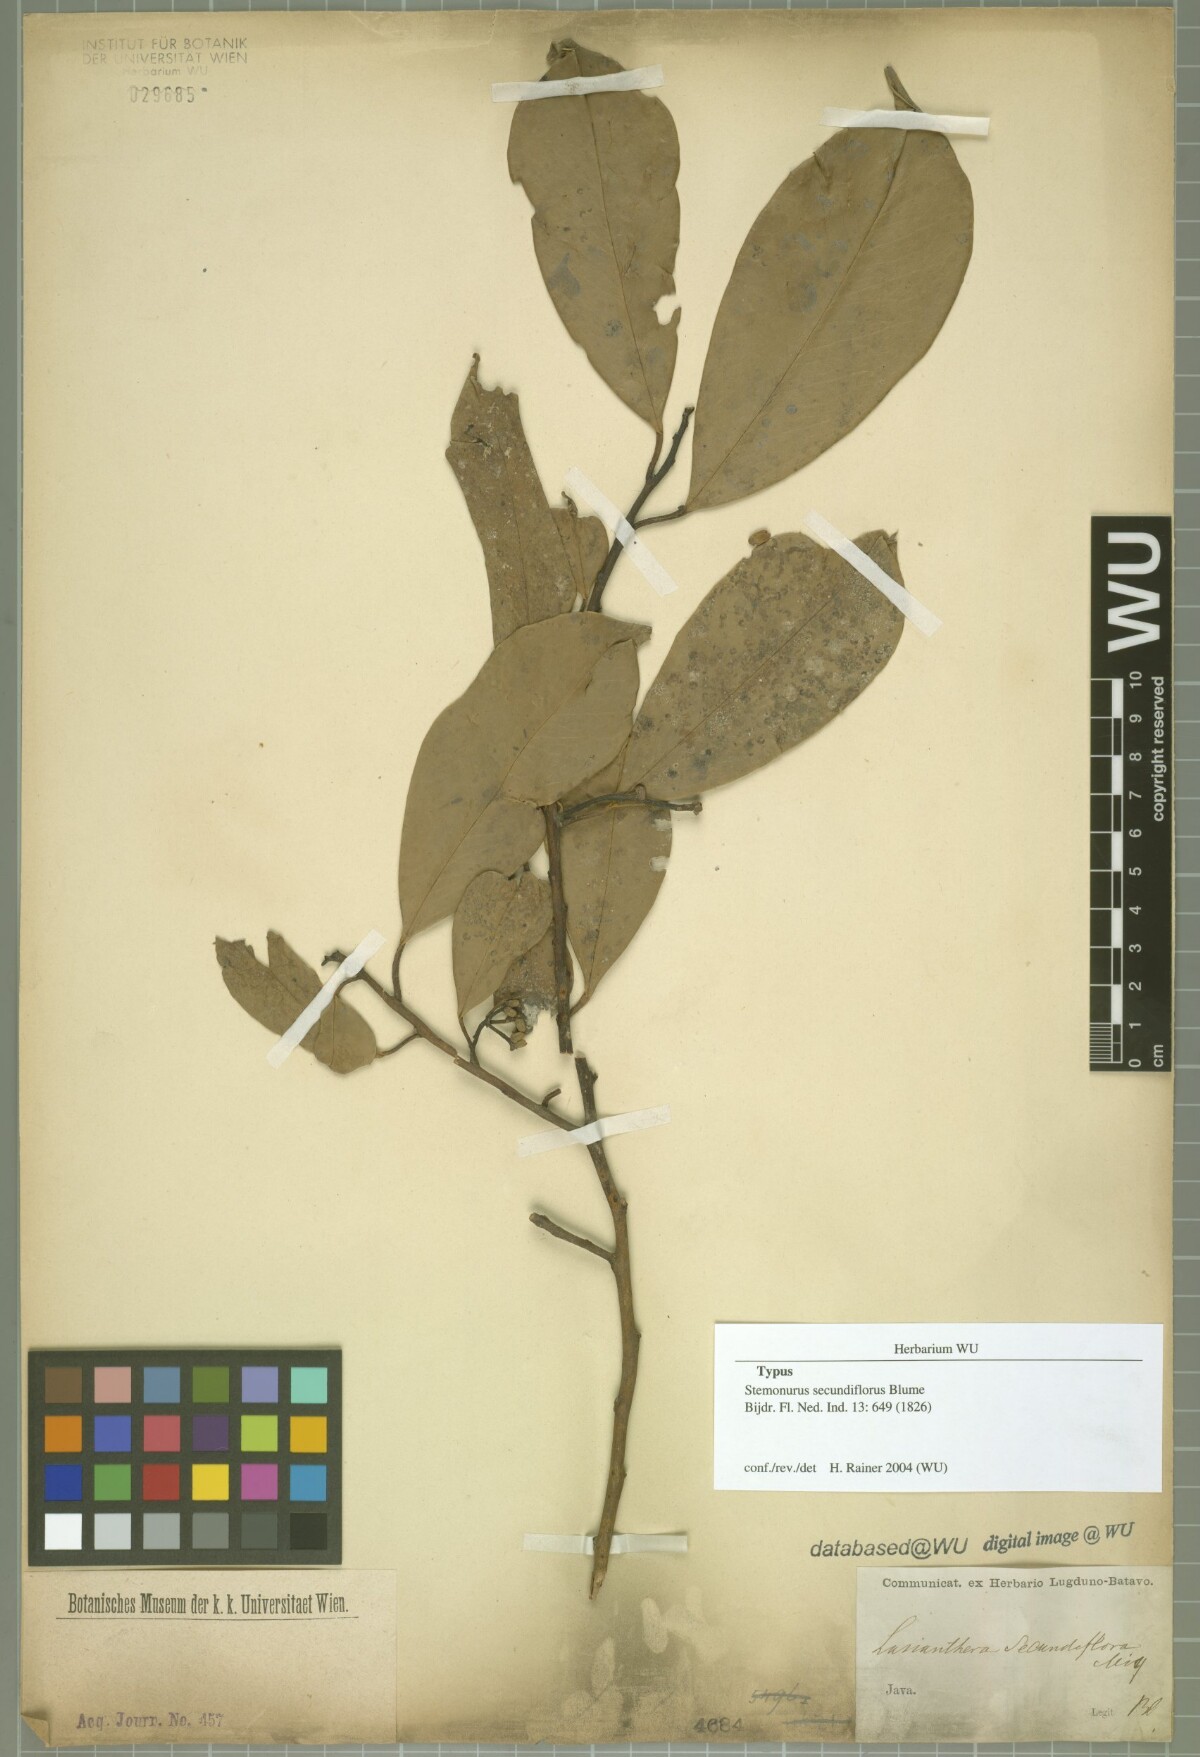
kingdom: Plantae
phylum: Tracheophyta
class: Magnoliopsida
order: Cardiopteridales
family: Stemonuraceae
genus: Stemonurus
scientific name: Stemonurus secundiflorus
